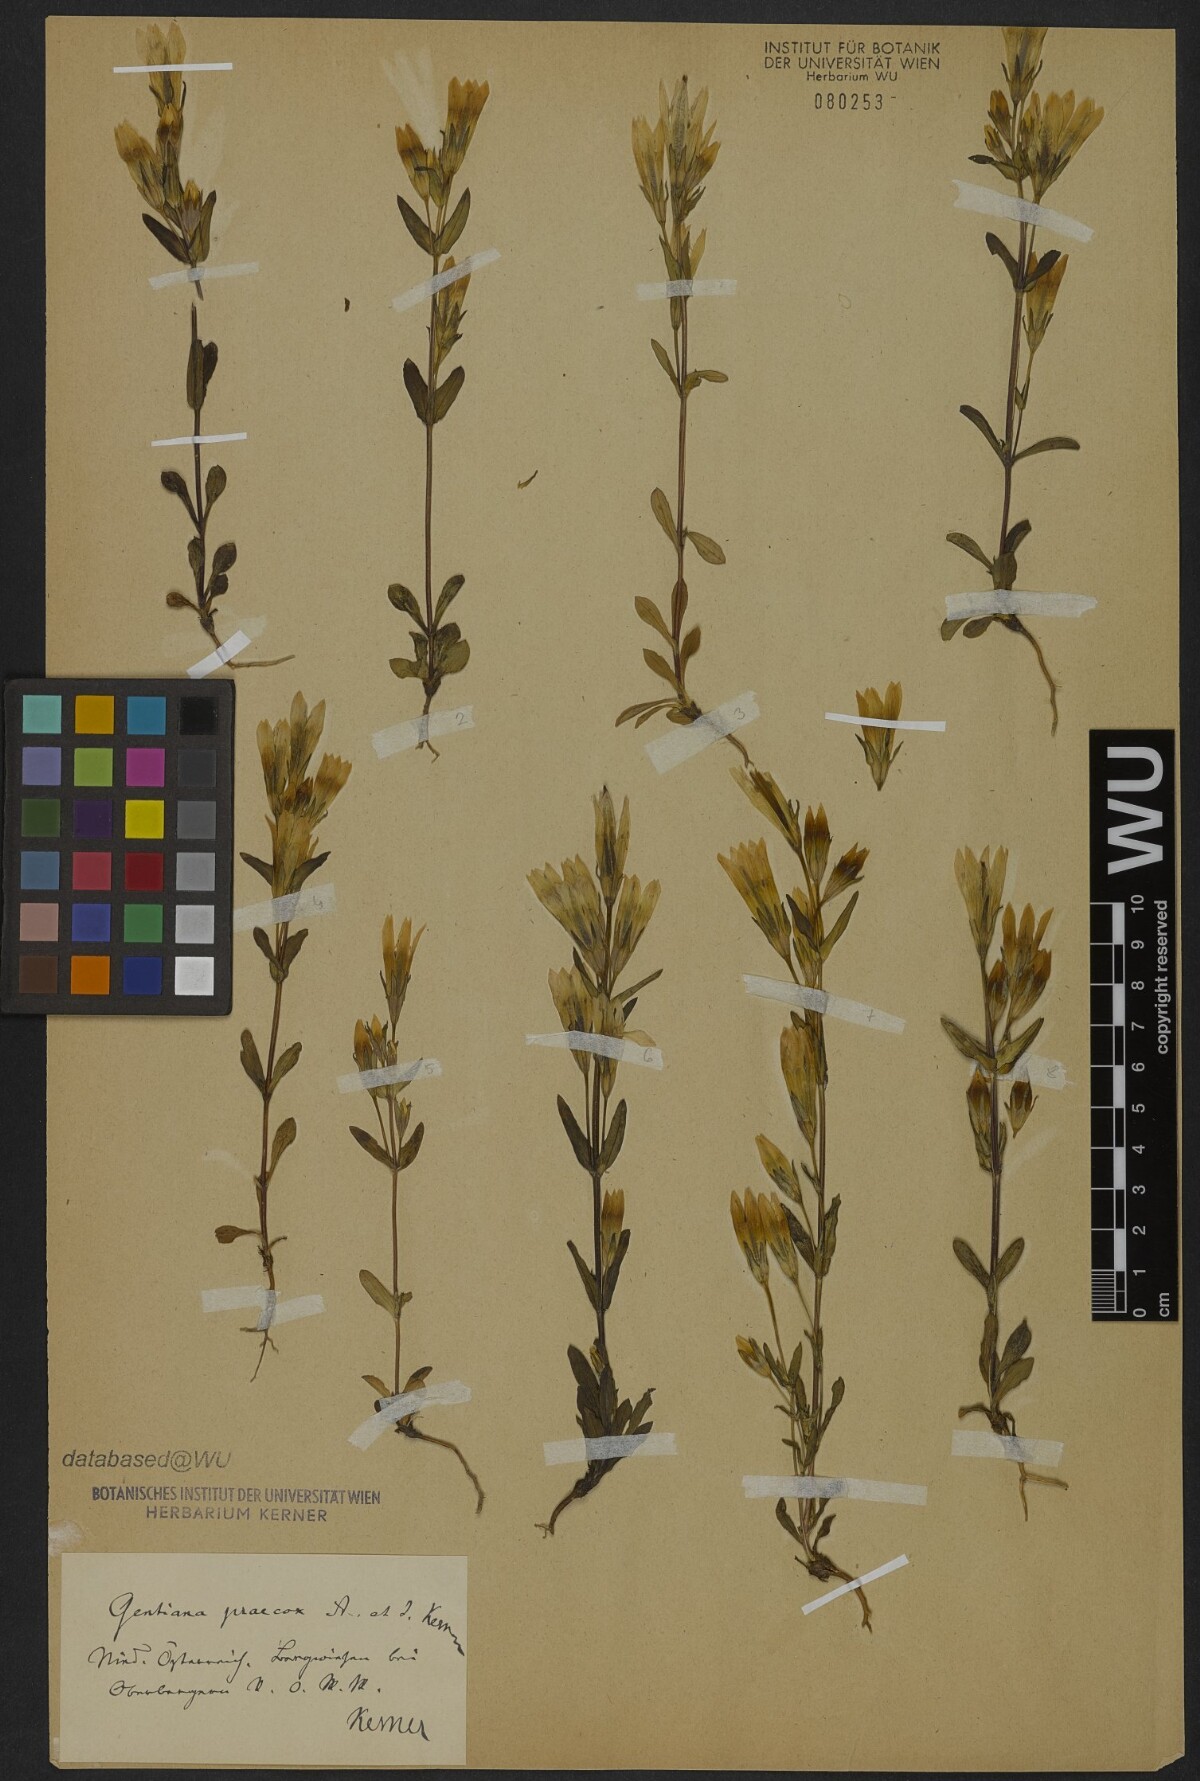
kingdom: Plantae
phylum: Tracheophyta
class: Magnoliopsida
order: Gentianales
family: Gentianaceae
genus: Gentianella
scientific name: Gentianella praecox
